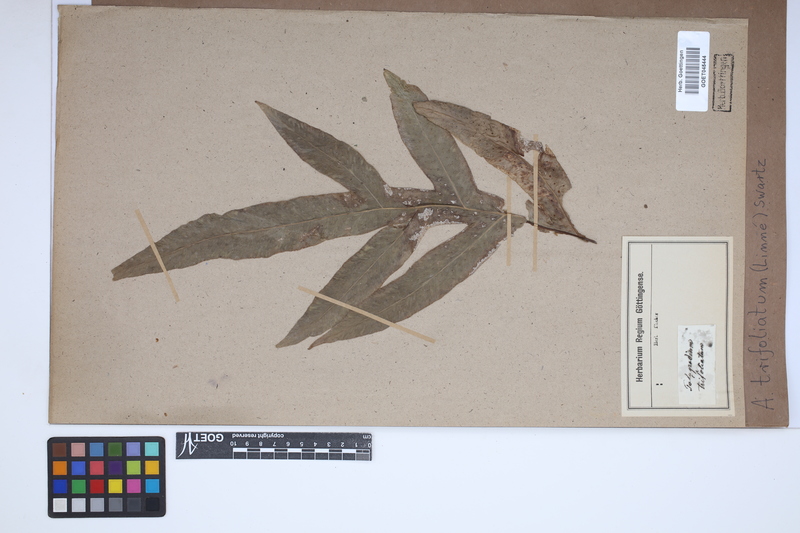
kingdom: Plantae
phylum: Tracheophyta
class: Polypodiopsida
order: Polypodiales
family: Tectariaceae
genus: Tectaria
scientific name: Tectaria trifoliata
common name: Threeleaf halberd fern
